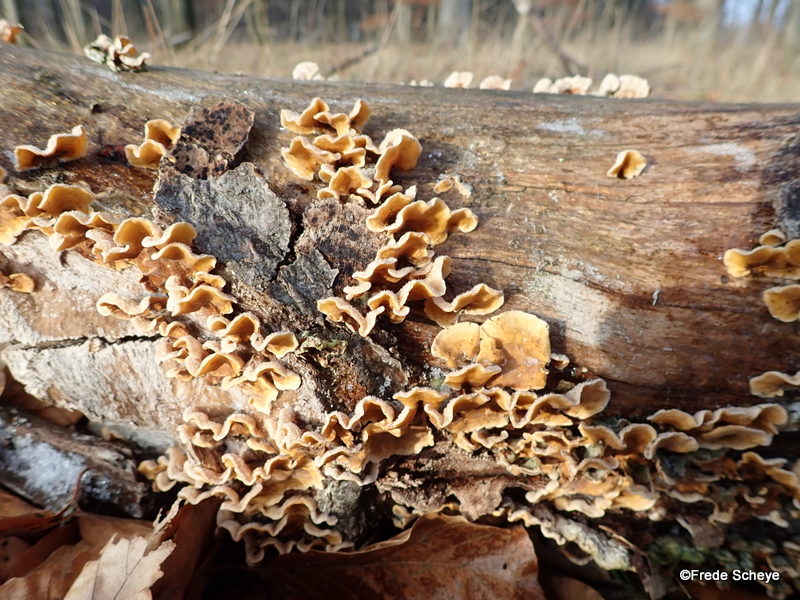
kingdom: Fungi
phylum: Basidiomycota
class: Agaricomycetes
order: Russulales
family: Stereaceae
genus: Stereum
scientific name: Stereum hirsutum
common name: håret lædersvamp
